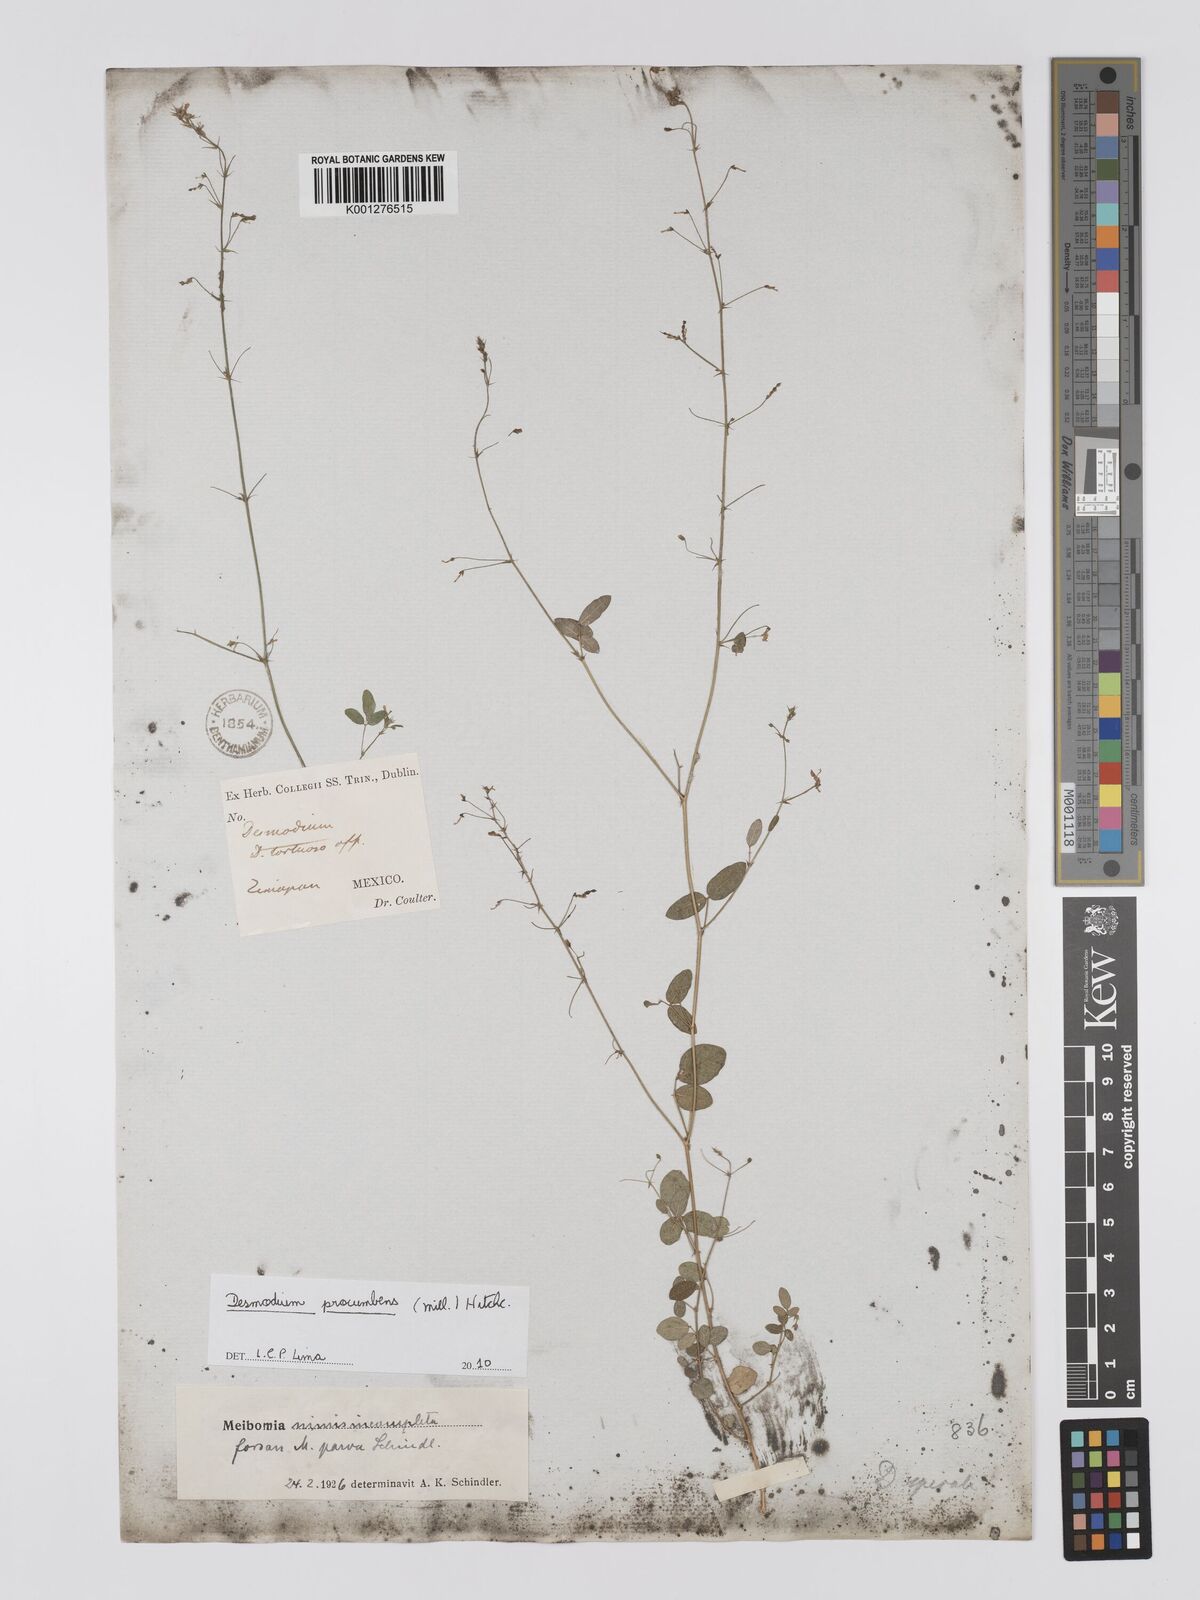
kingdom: Plantae
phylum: Tracheophyta
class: Magnoliopsida
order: Fabales
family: Fabaceae
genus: Desmodium
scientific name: Desmodium procumbens
